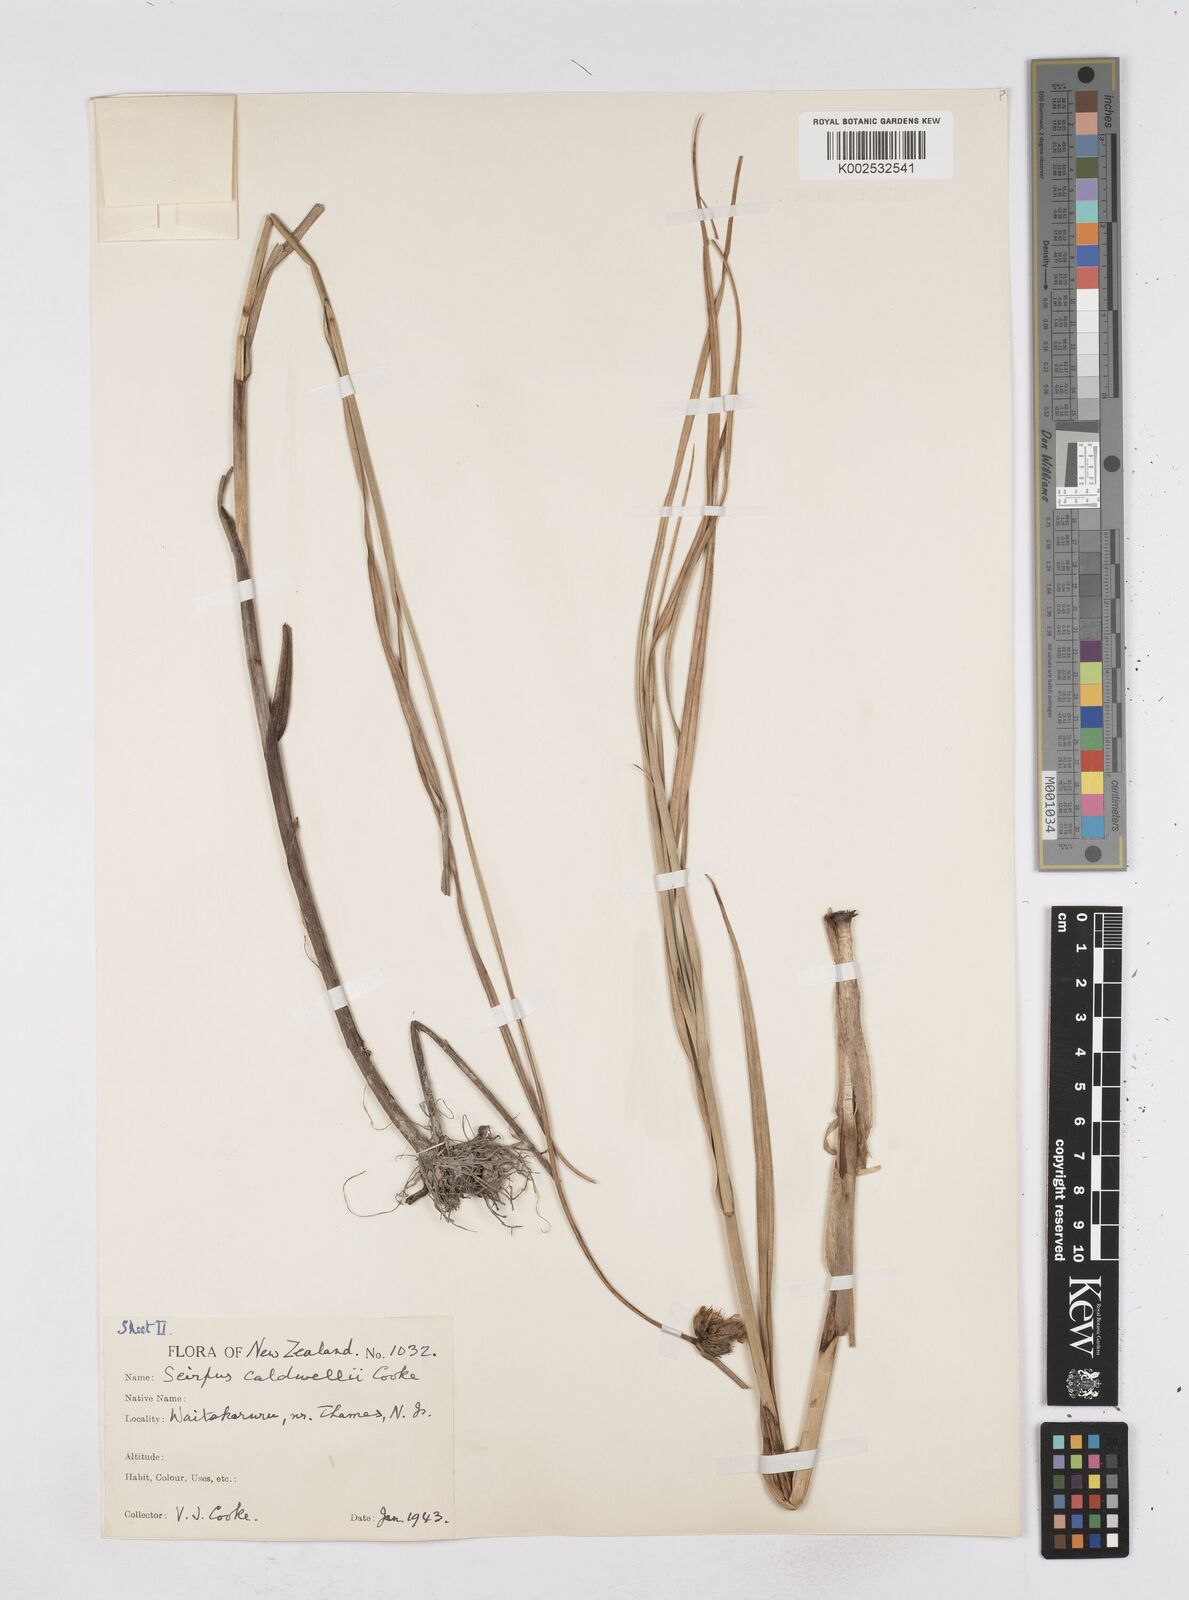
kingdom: Plantae
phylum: Tracheophyta
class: Liliopsida
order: Poales
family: Cyperaceae
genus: Bolboschoenus
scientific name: Bolboschoenus caldwellii
